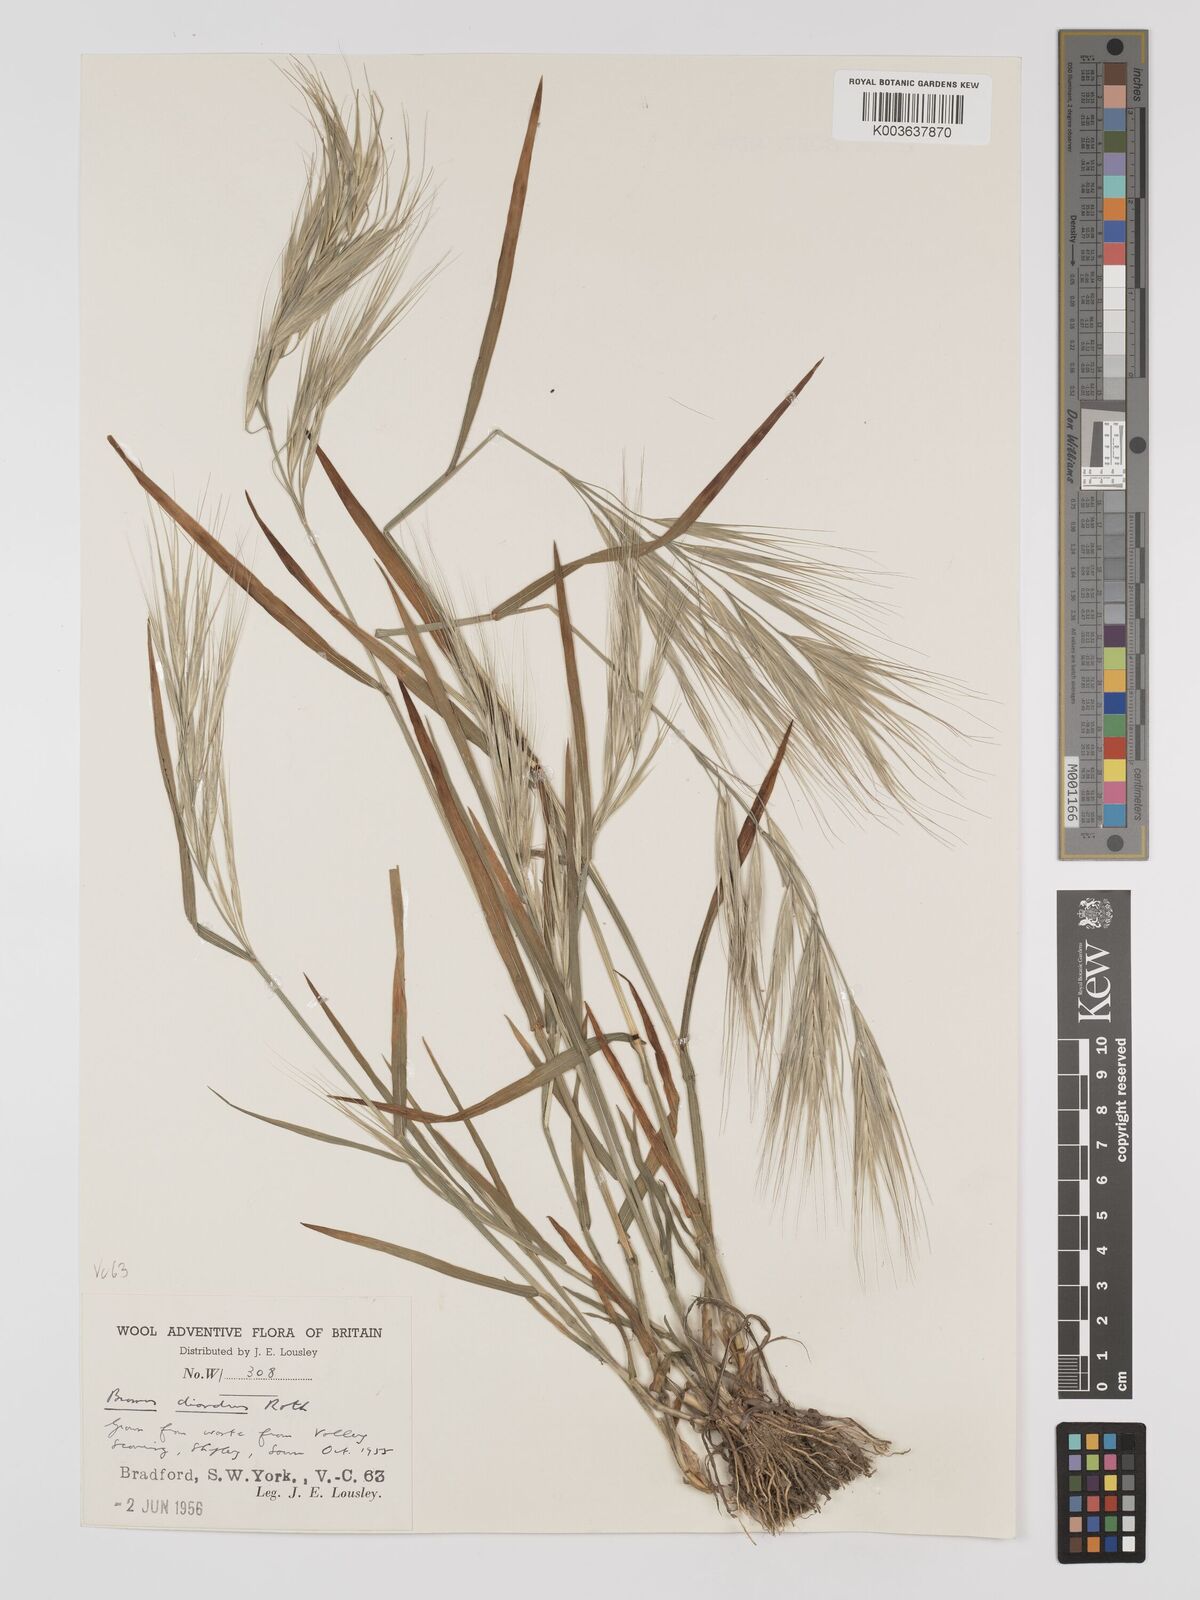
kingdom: Plantae
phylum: Tracheophyta
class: Liliopsida
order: Poales
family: Poaceae
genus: Bromus
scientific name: Bromus
